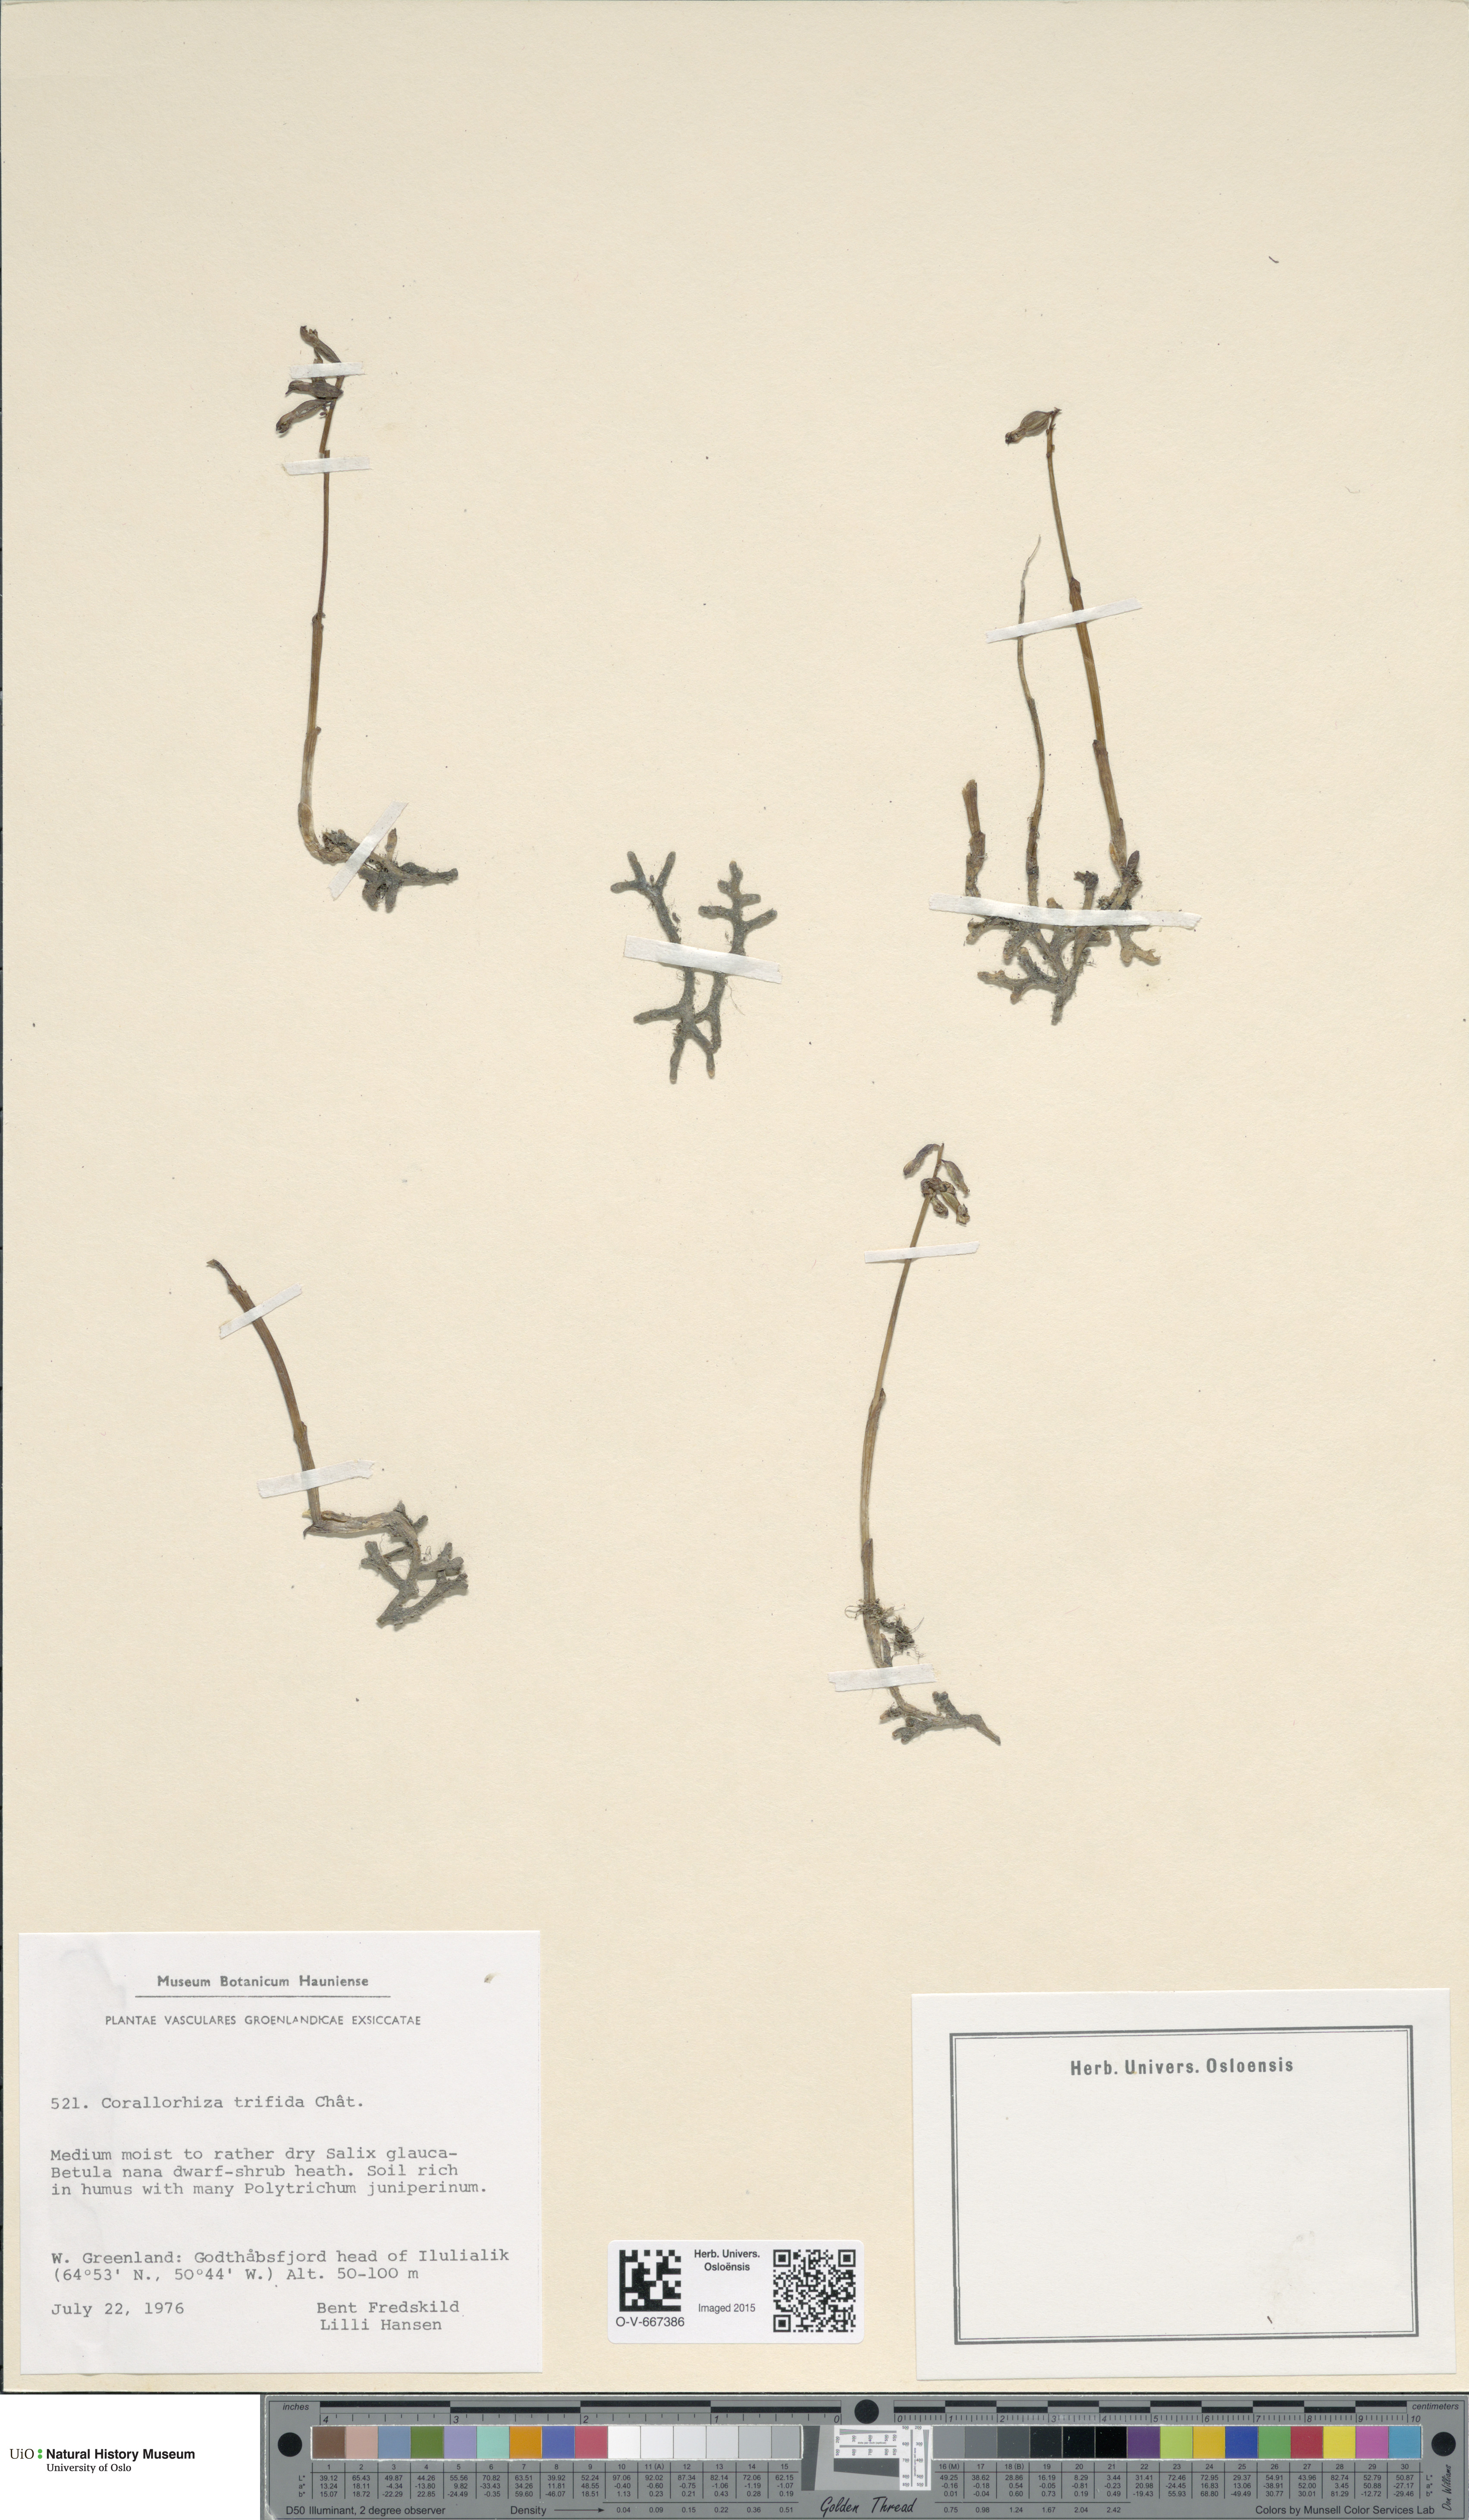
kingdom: Plantae
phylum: Tracheophyta
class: Liliopsida
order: Asparagales
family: Orchidaceae
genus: Corallorhiza
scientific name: Corallorhiza trifida
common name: Yellow coralroot
